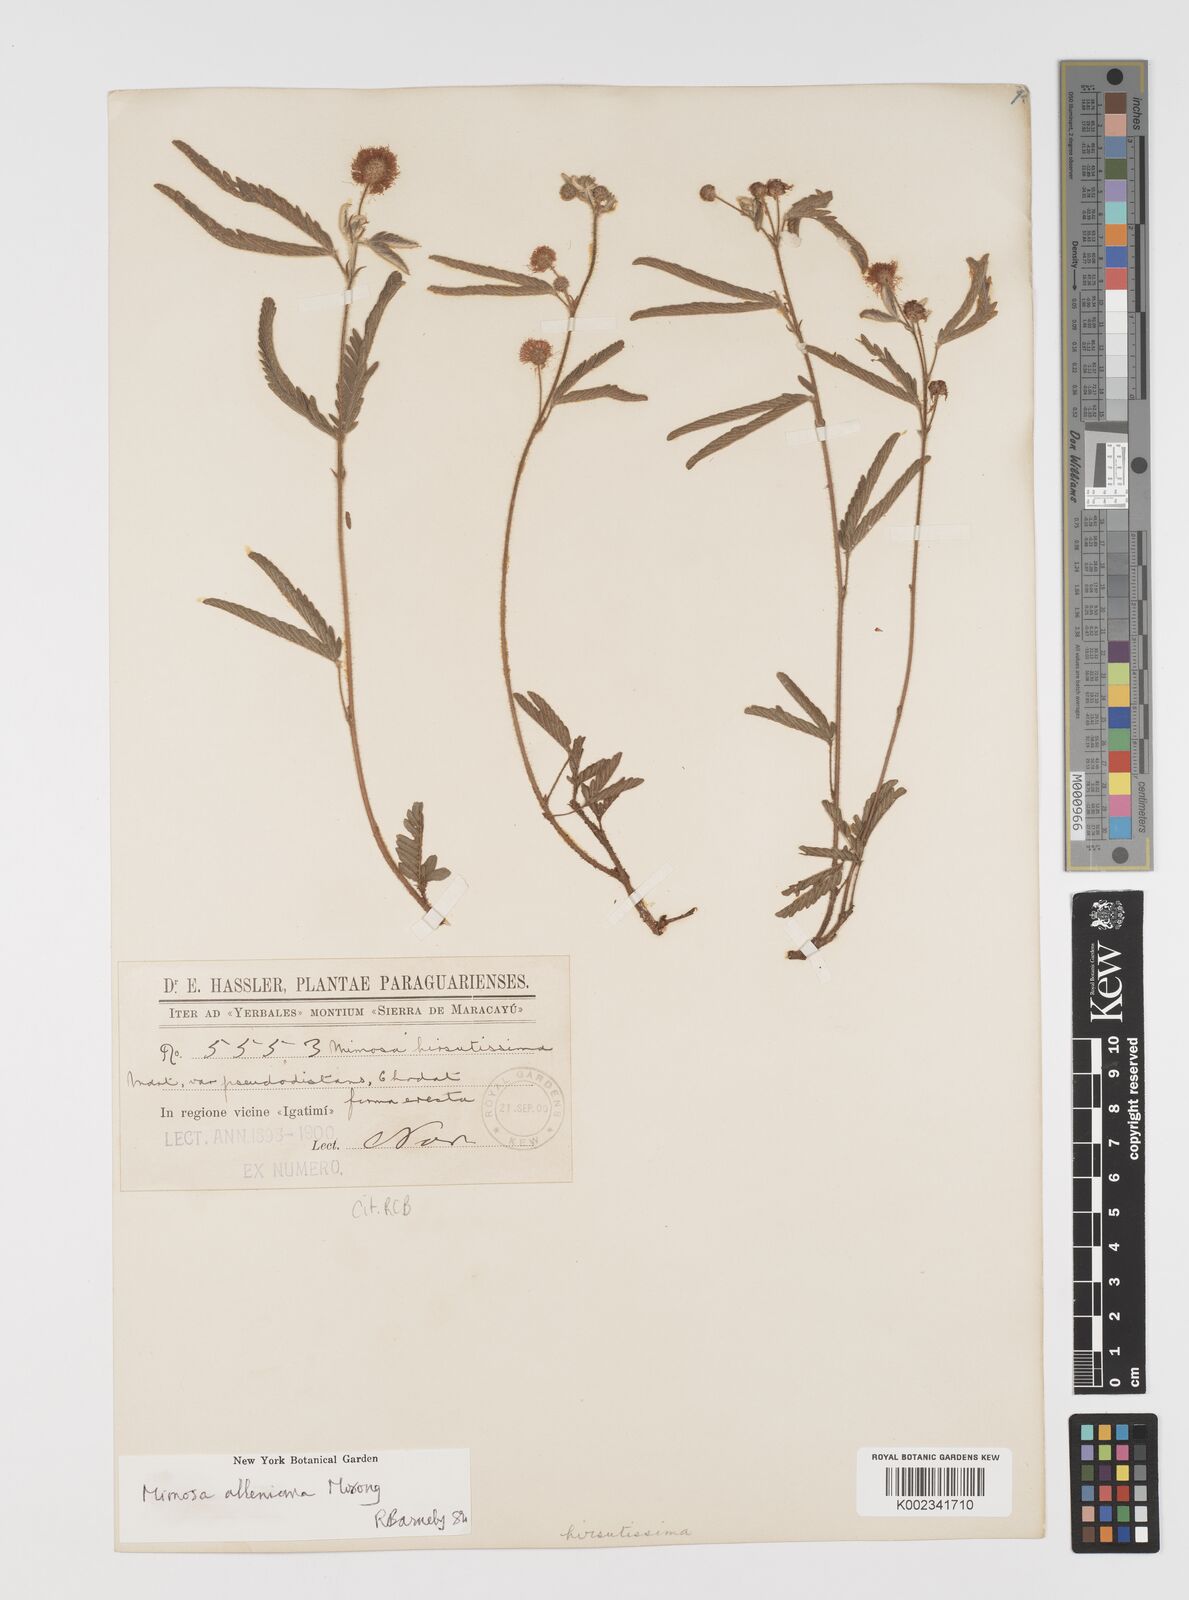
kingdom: Plantae
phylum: Tracheophyta
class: Magnoliopsida
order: Fabales
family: Fabaceae
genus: Mimosa
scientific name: Mimosa alleniana
